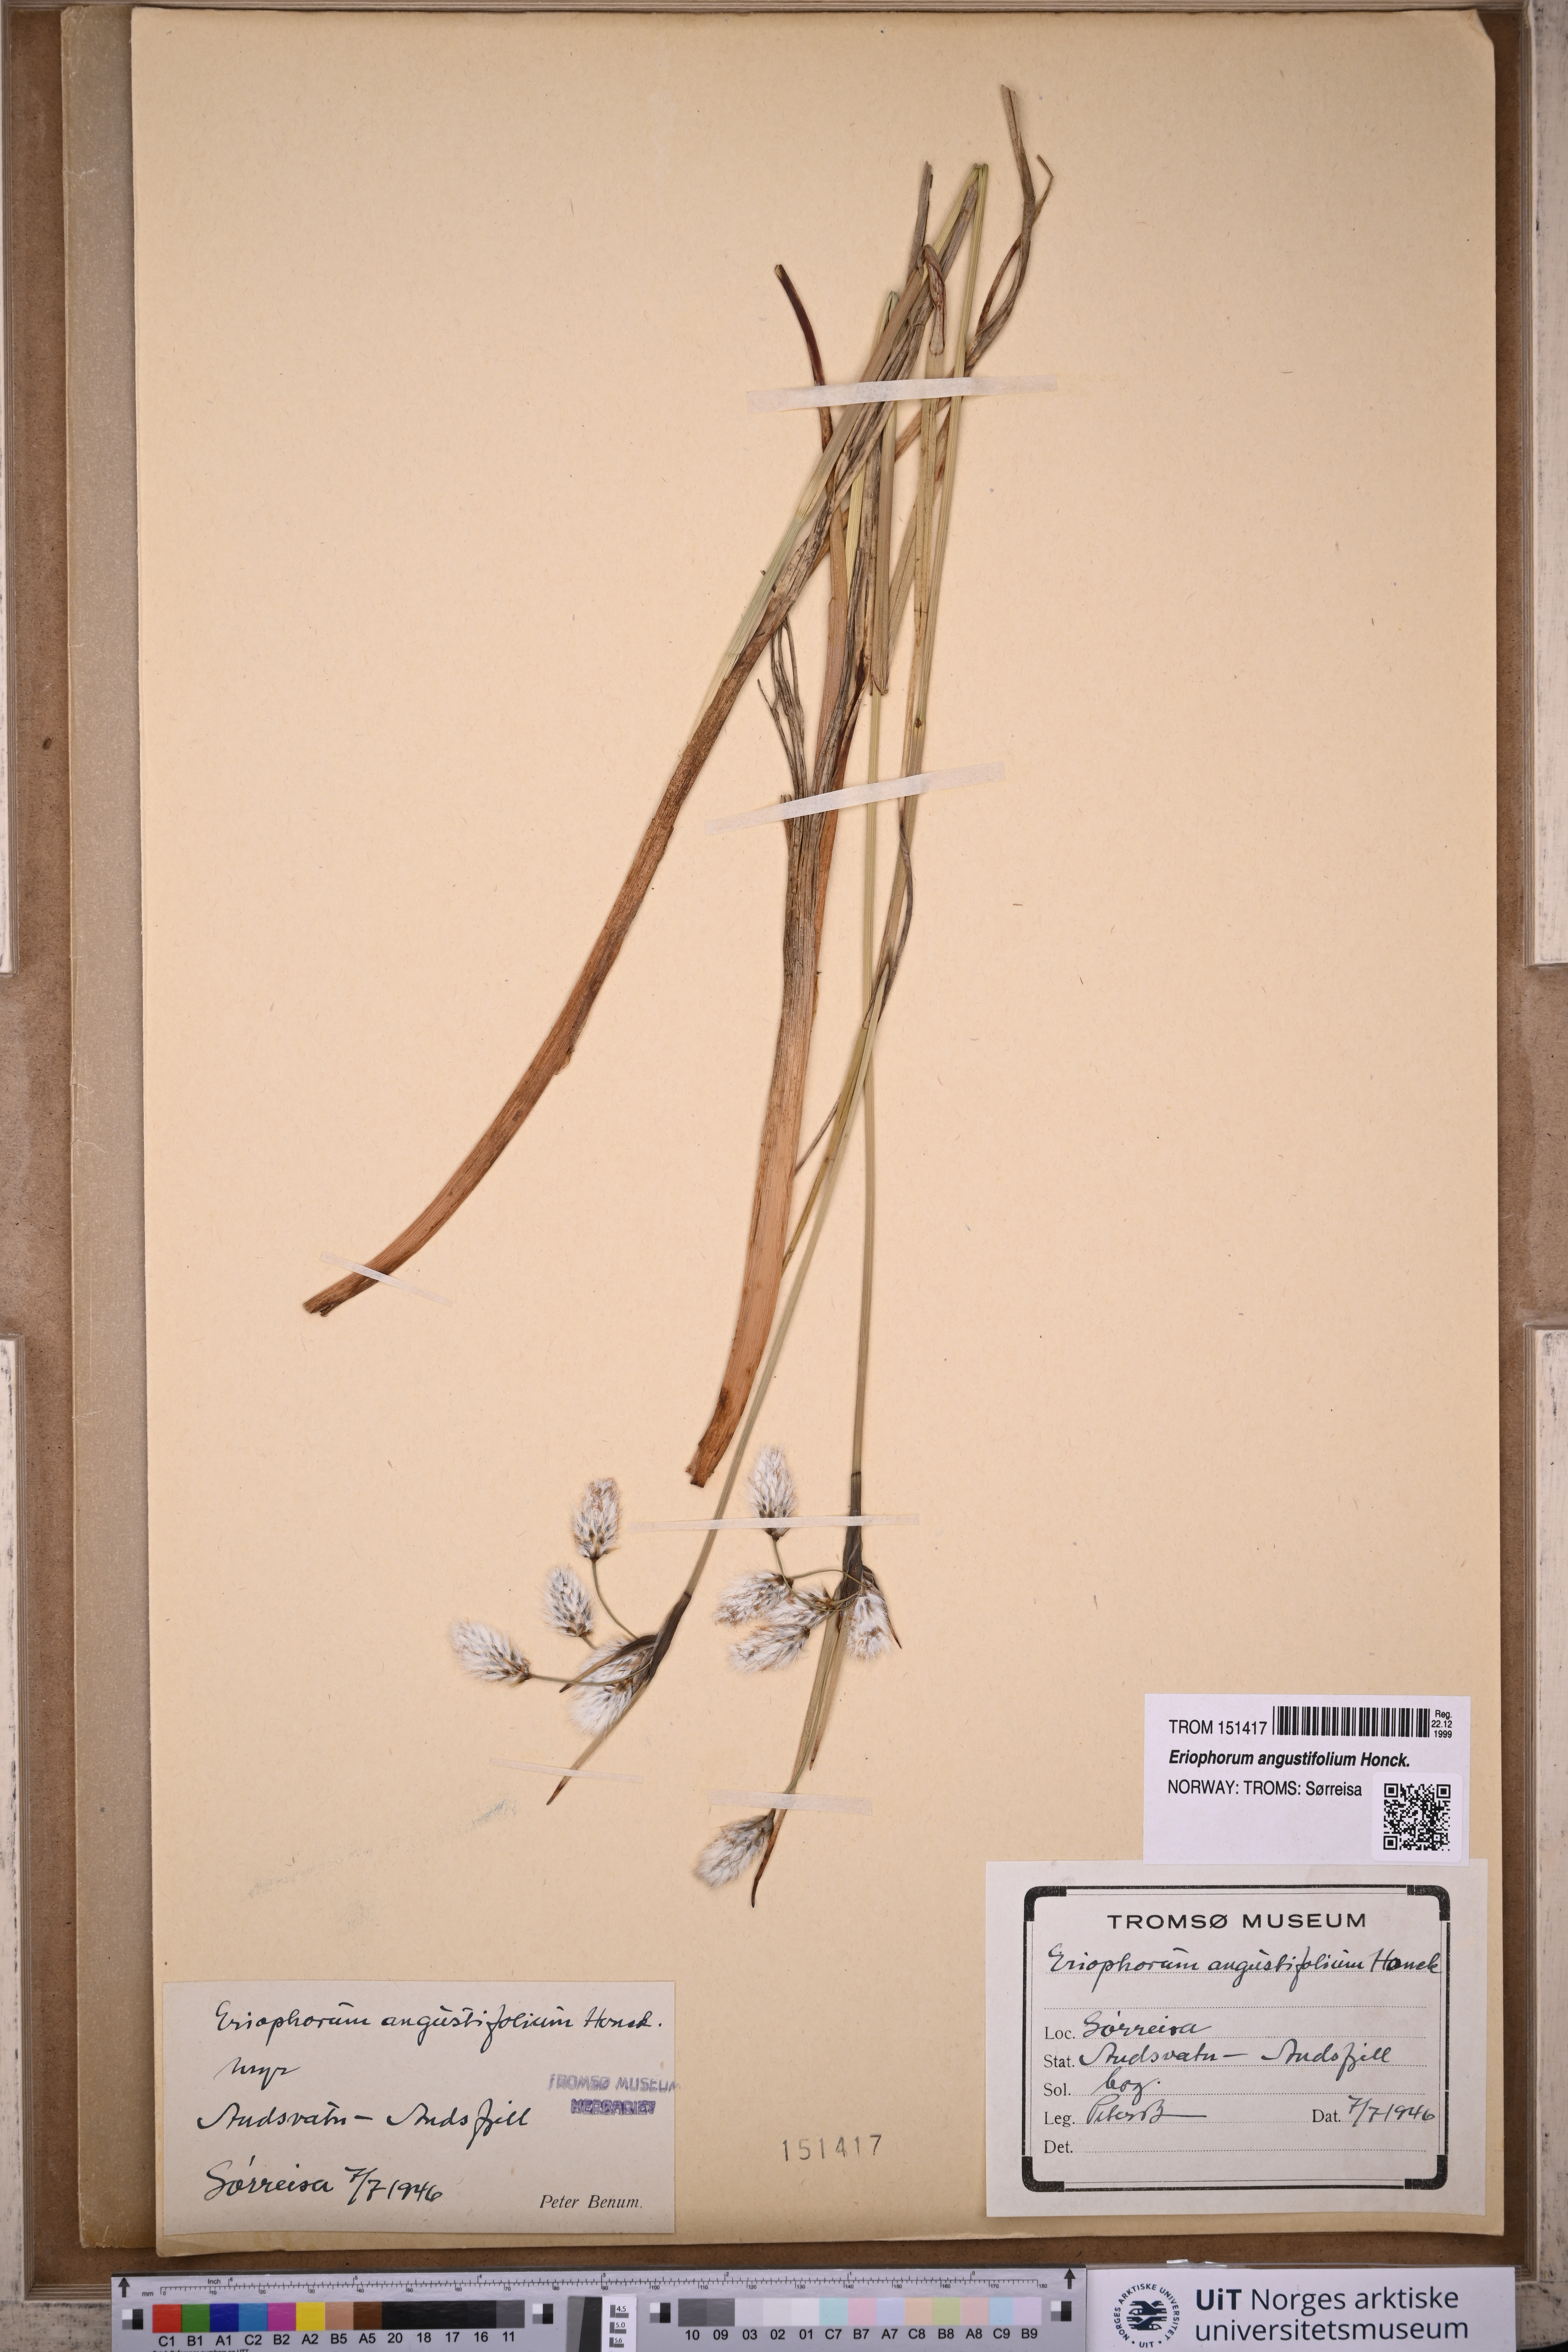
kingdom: Plantae
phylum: Tracheophyta
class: Liliopsida
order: Poales
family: Cyperaceae
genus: Eriophorum
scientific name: Eriophorum angustifolium
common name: Common cottongrass
